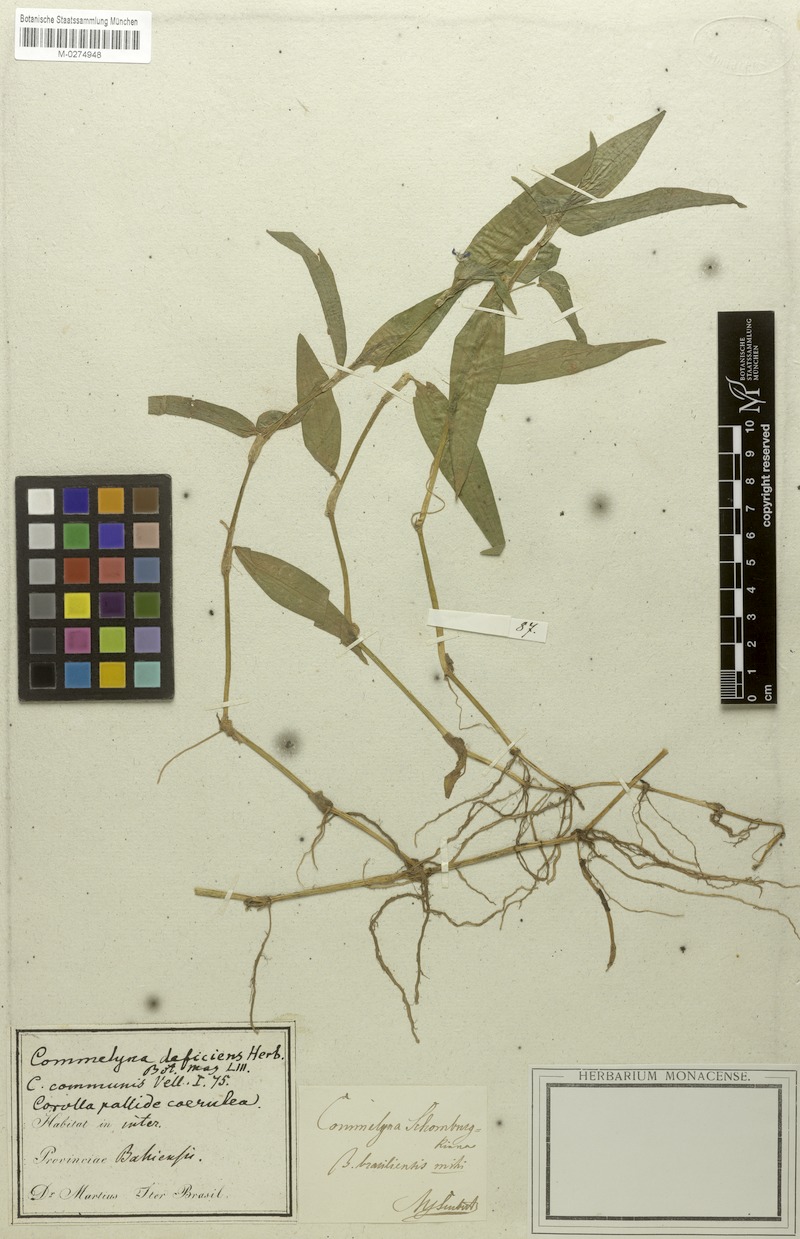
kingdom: Plantae
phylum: Tracheophyta
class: Liliopsida
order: Commelinales
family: Commelinaceae
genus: Commelina
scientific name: Commelina schomburgkiana
